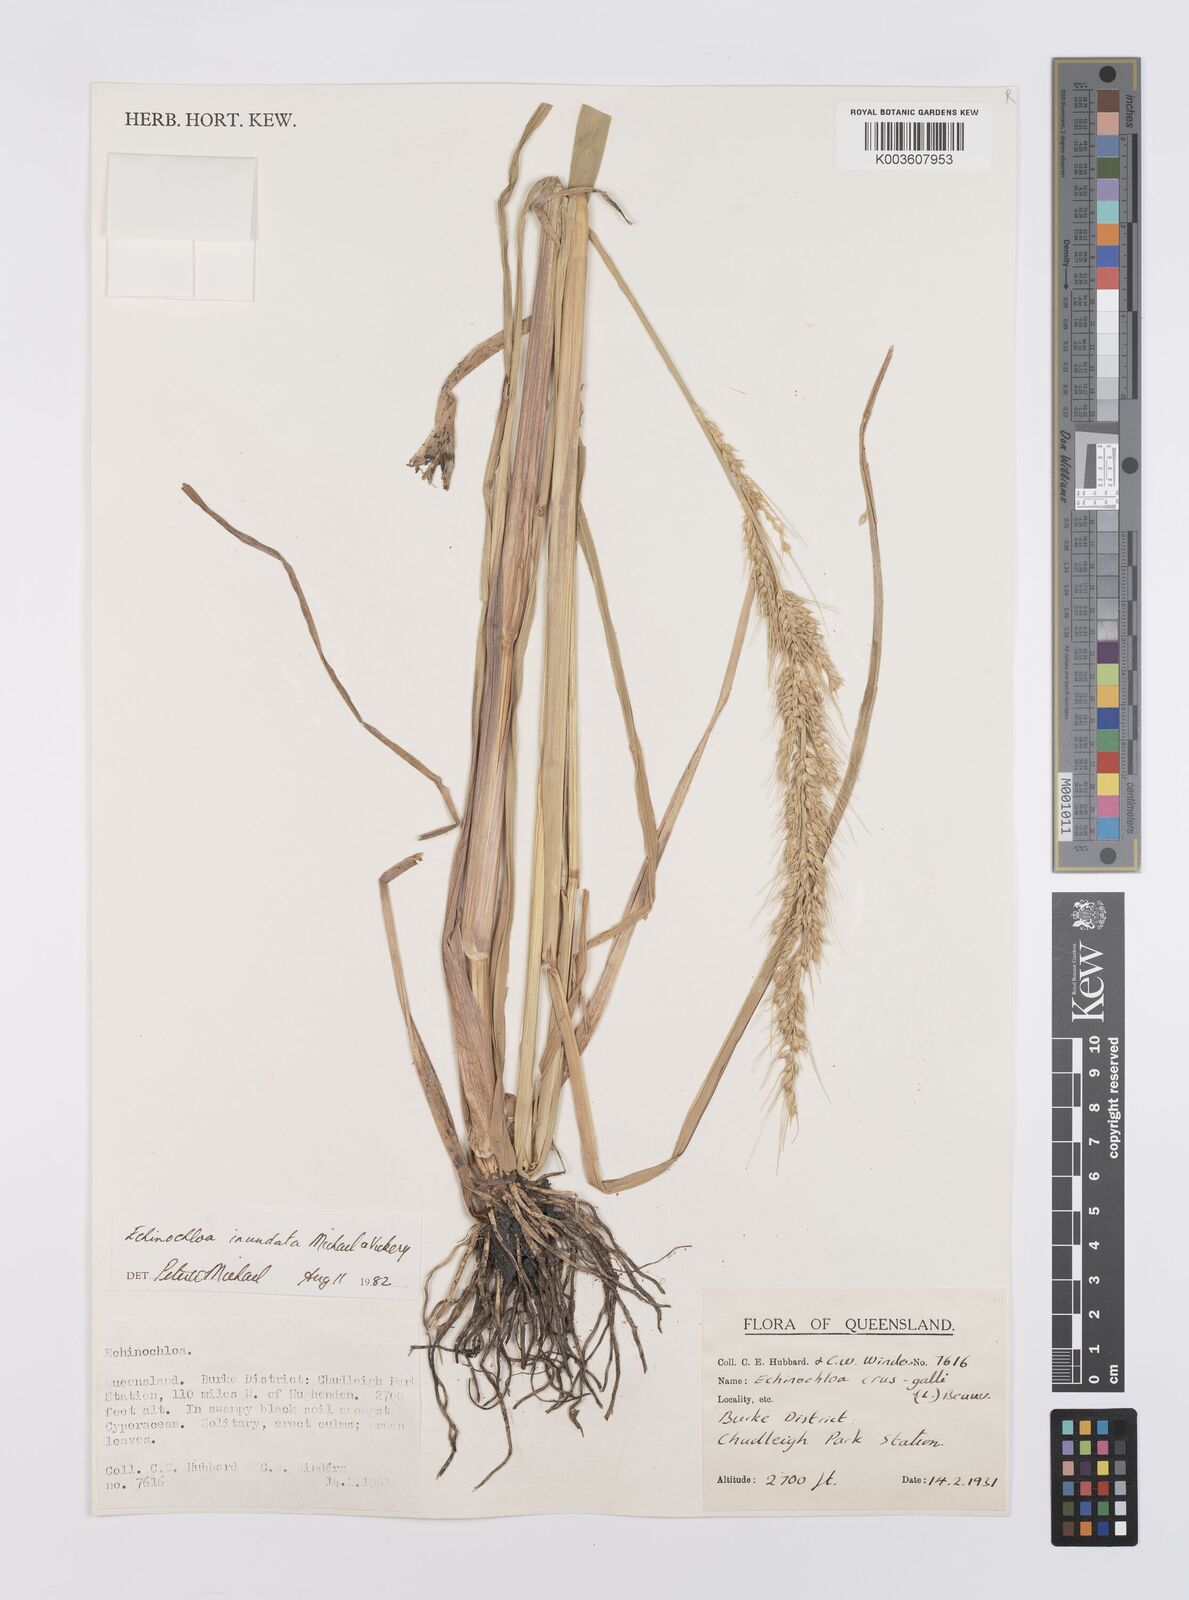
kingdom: Plantae
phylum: Tracheophyta
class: Liliopsida
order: Poales
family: Poaceae
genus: Echinochloa
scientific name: Echinochloa crus-galli
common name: Cockspur
